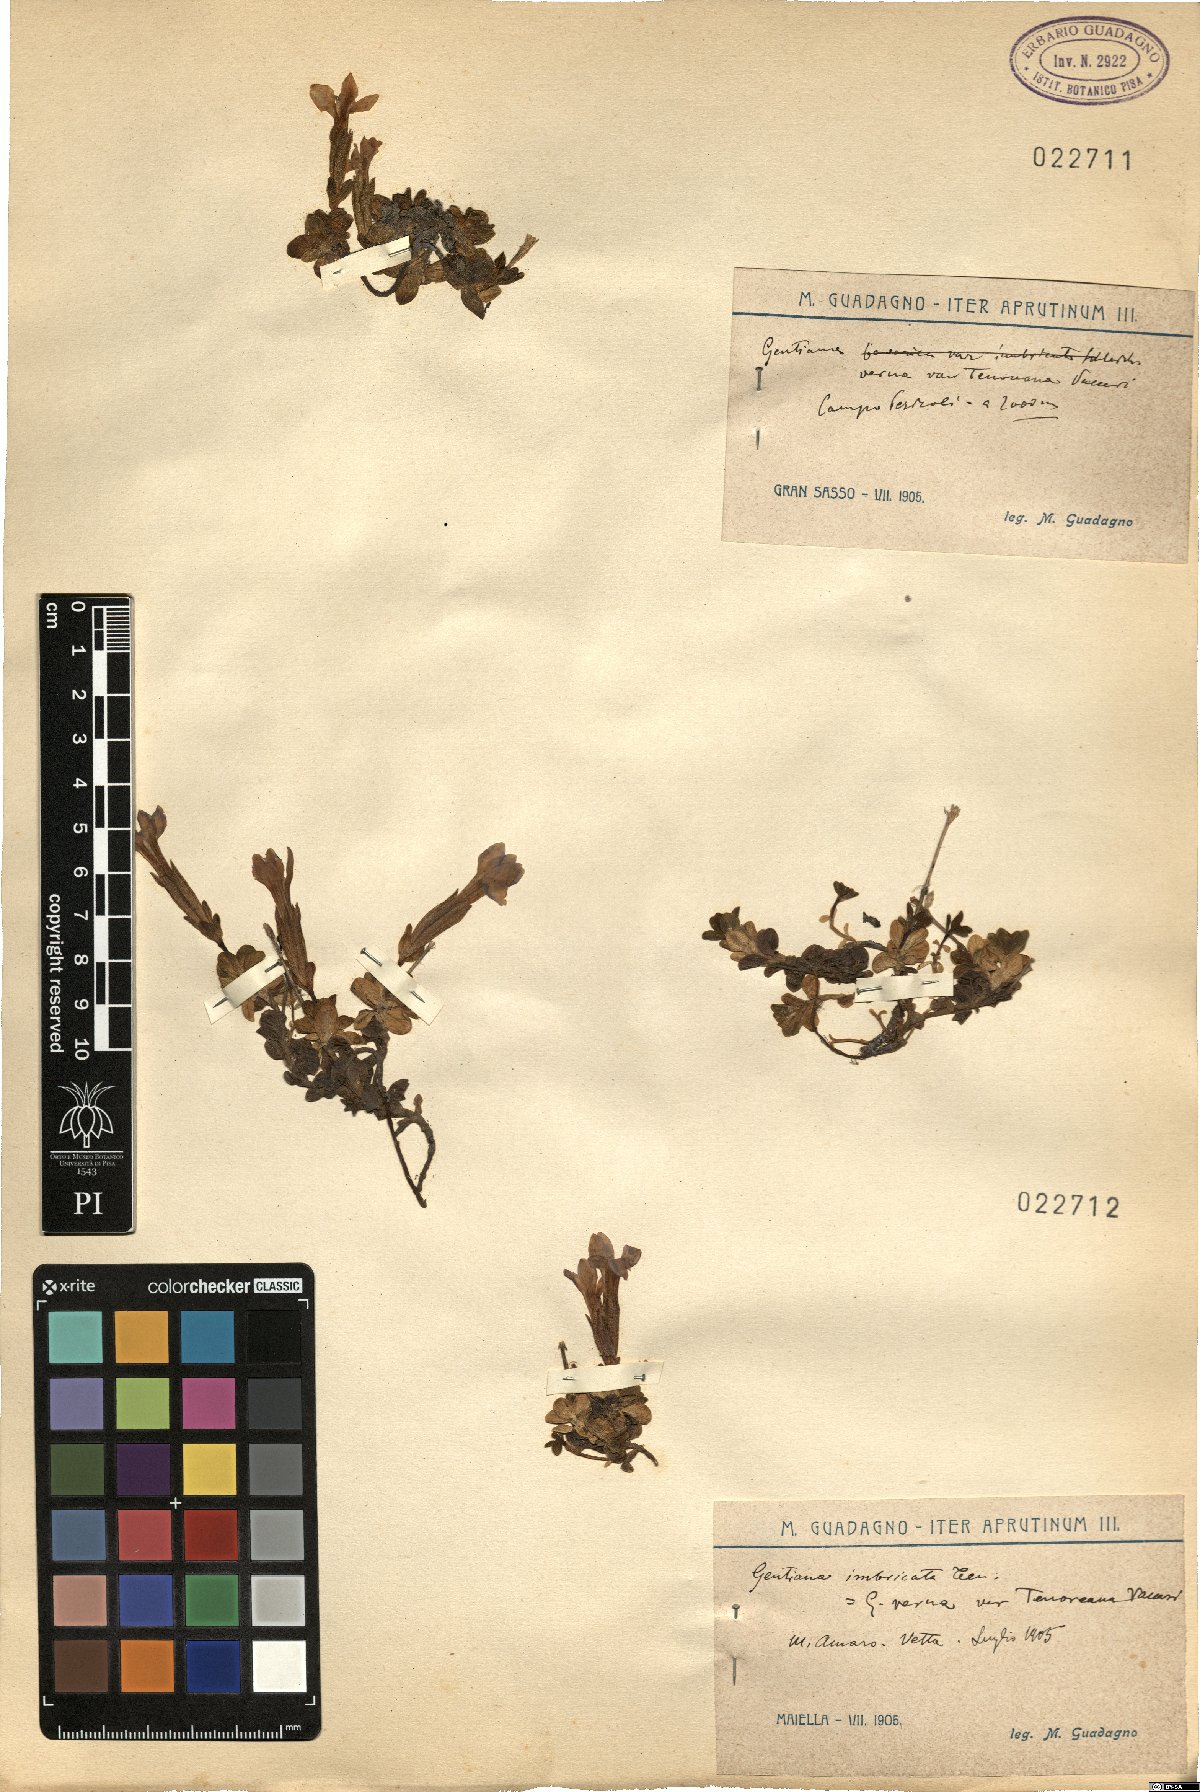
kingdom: Plantae
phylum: Tracheophyta
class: Magnoliopsida
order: Gentianales
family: Gentianaceae
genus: Gentiana
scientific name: Gentiana verna
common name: Spring gentian
